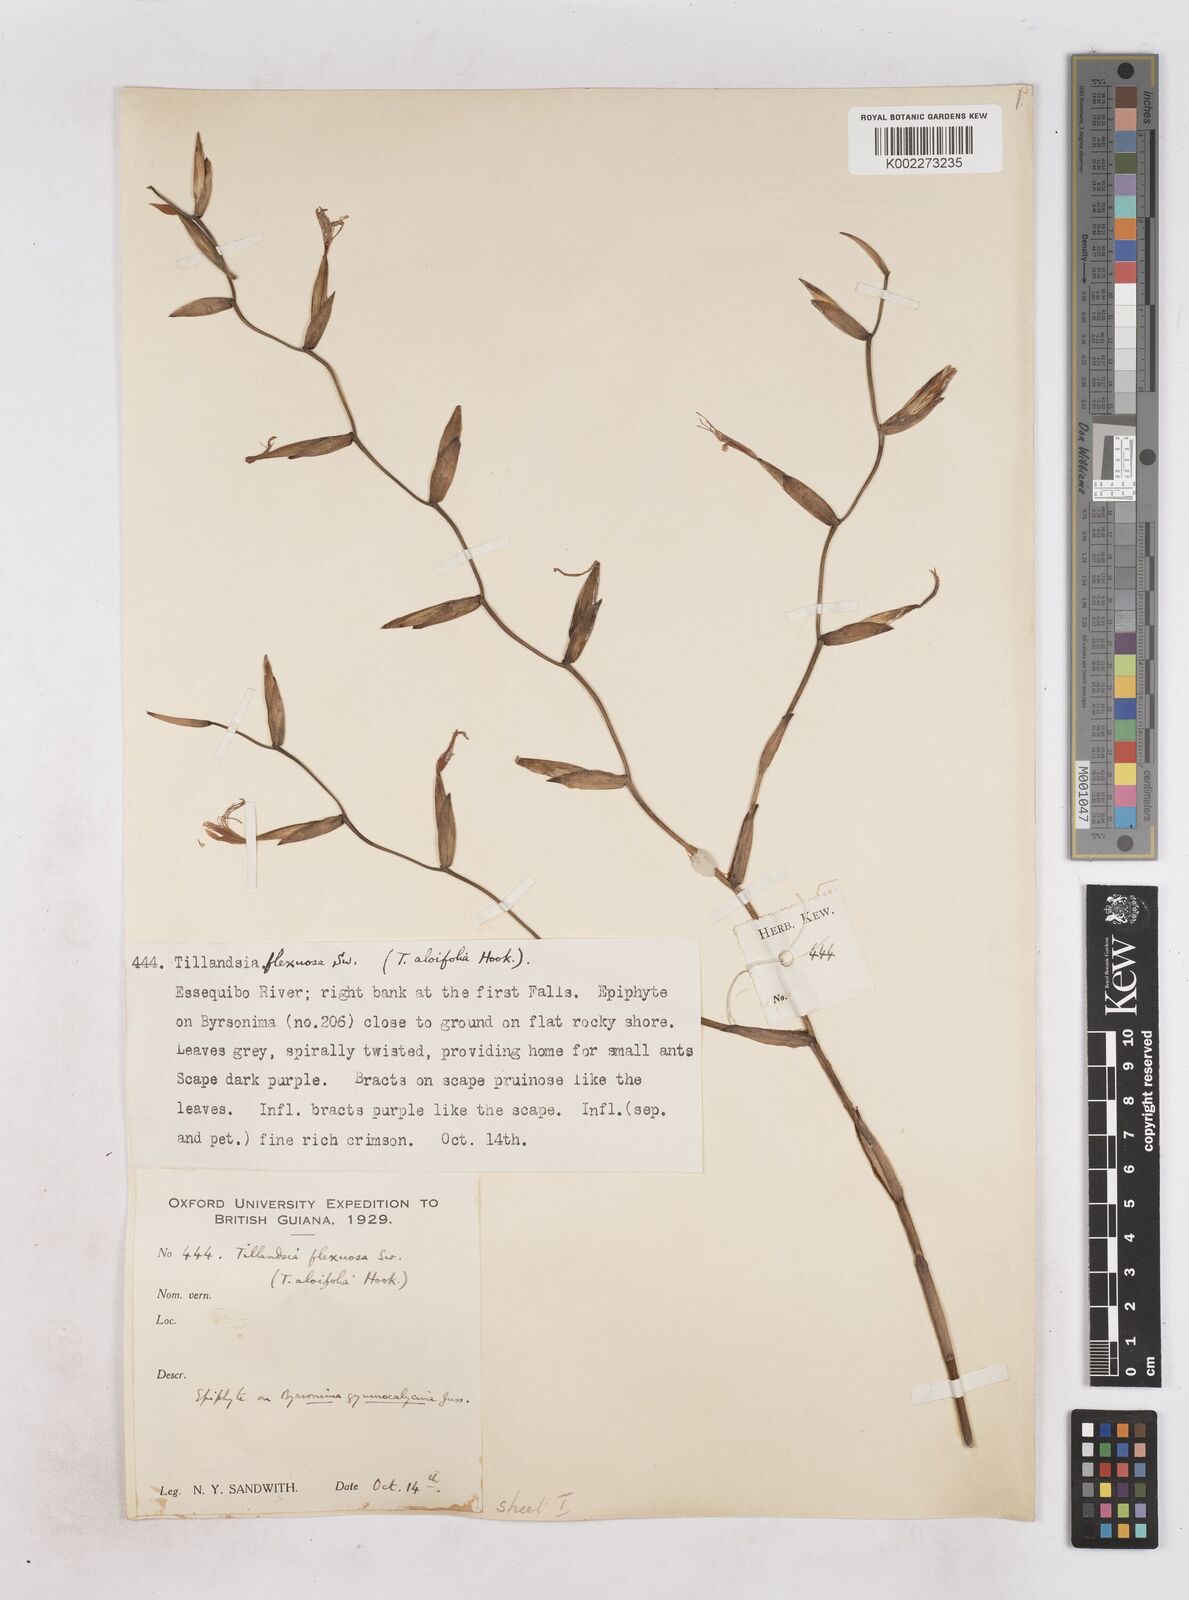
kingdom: Plantae
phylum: Tracheophyta
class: Liliopsida
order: Poales
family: Bromeliaceae
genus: Tillandsia
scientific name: Tillandsia flexuosa
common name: Banded airplant
